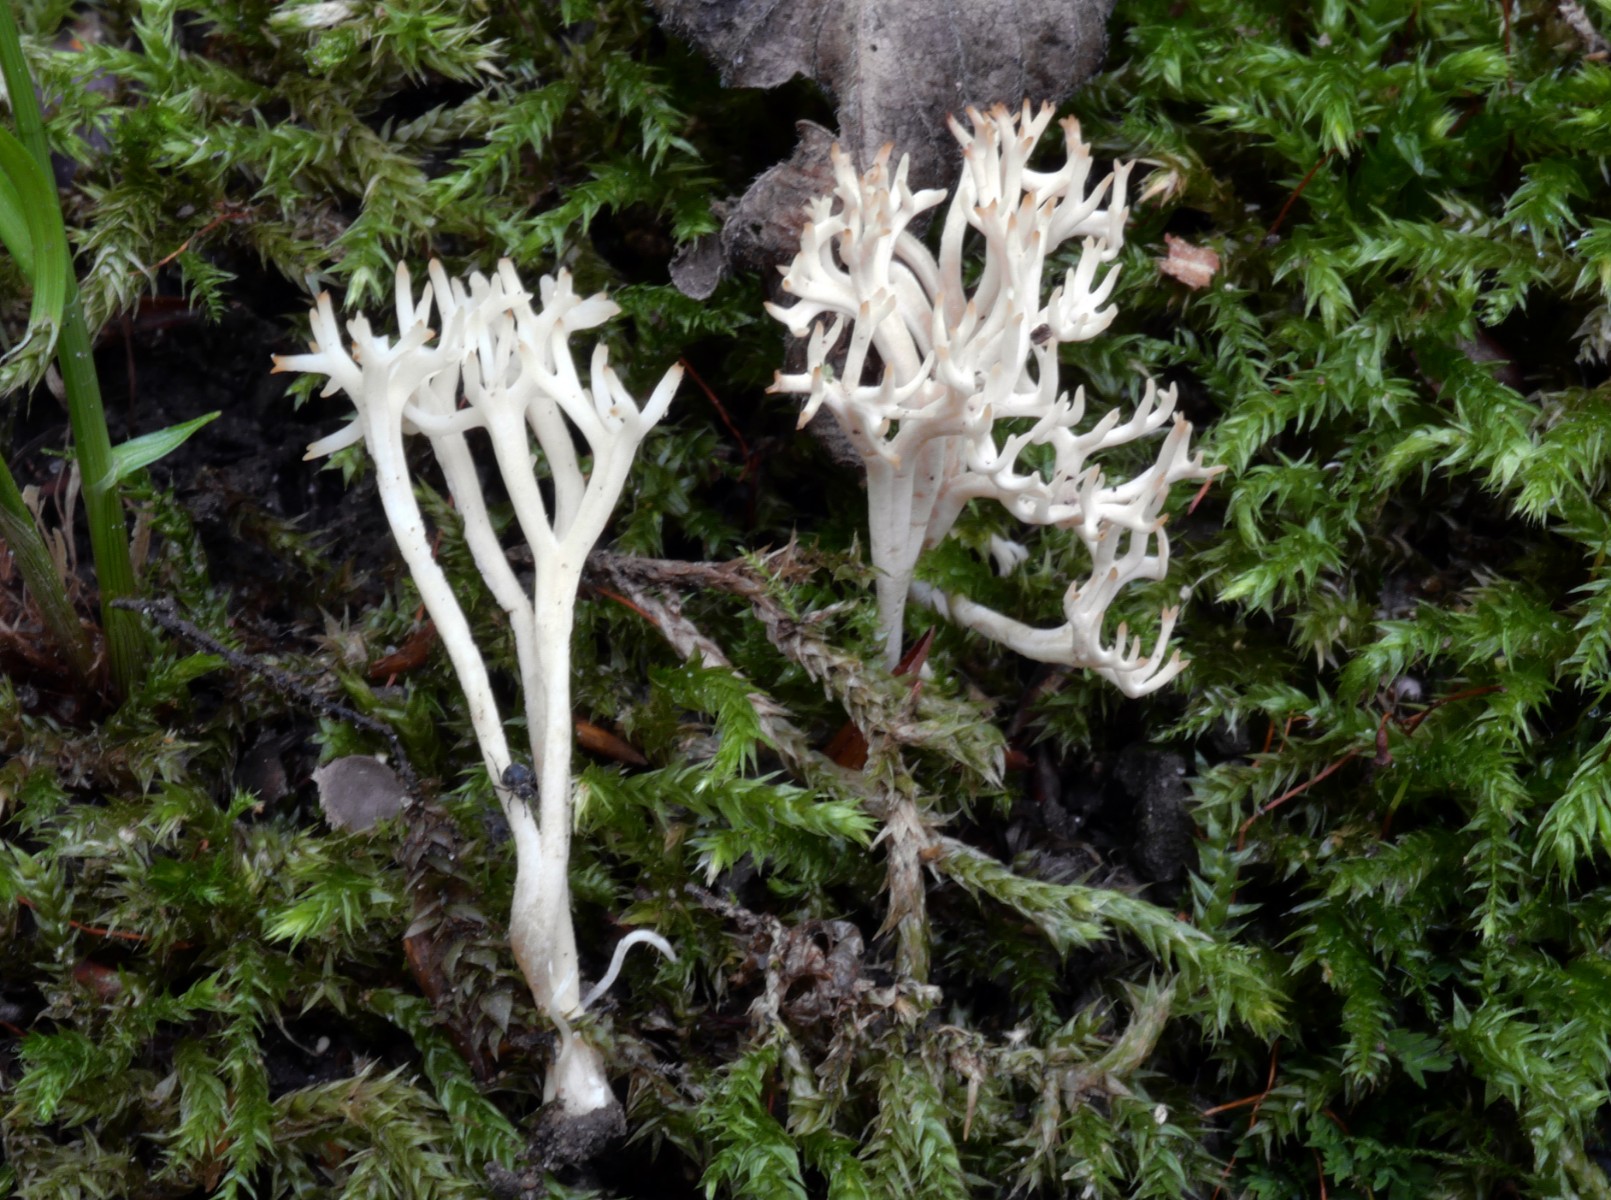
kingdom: Fungi
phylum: Basidiomycota
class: Agaricomycetes
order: Agaricales
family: Clavariaceae
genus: Ramariopsis
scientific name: Ramariopsis
